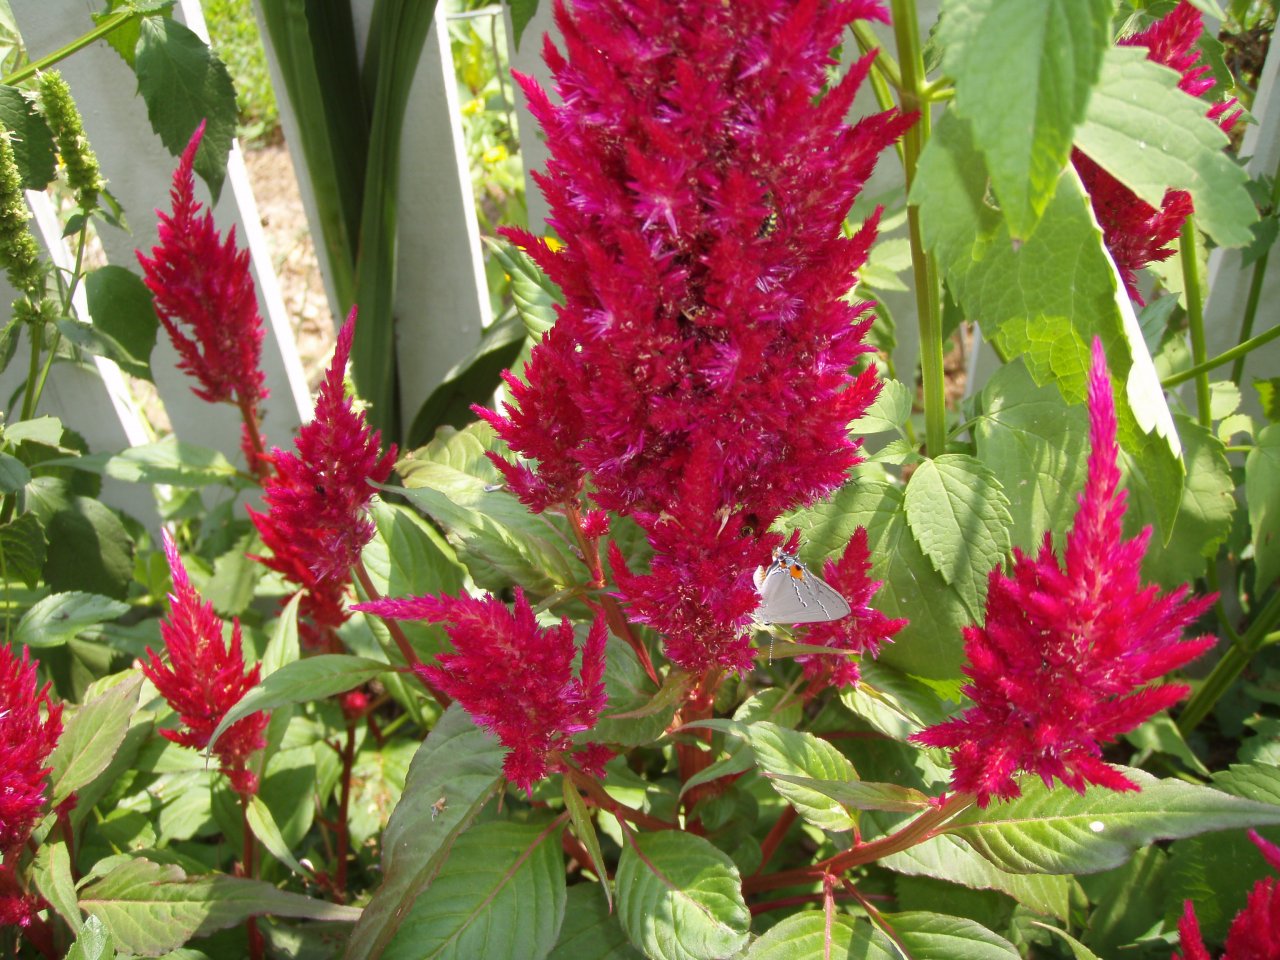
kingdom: Animalia
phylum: Arthropoda
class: Insecta
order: Lepidoptera
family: Lycaenidae
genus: Strymon
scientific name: Strymon melinus
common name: Gray Hairstreak
